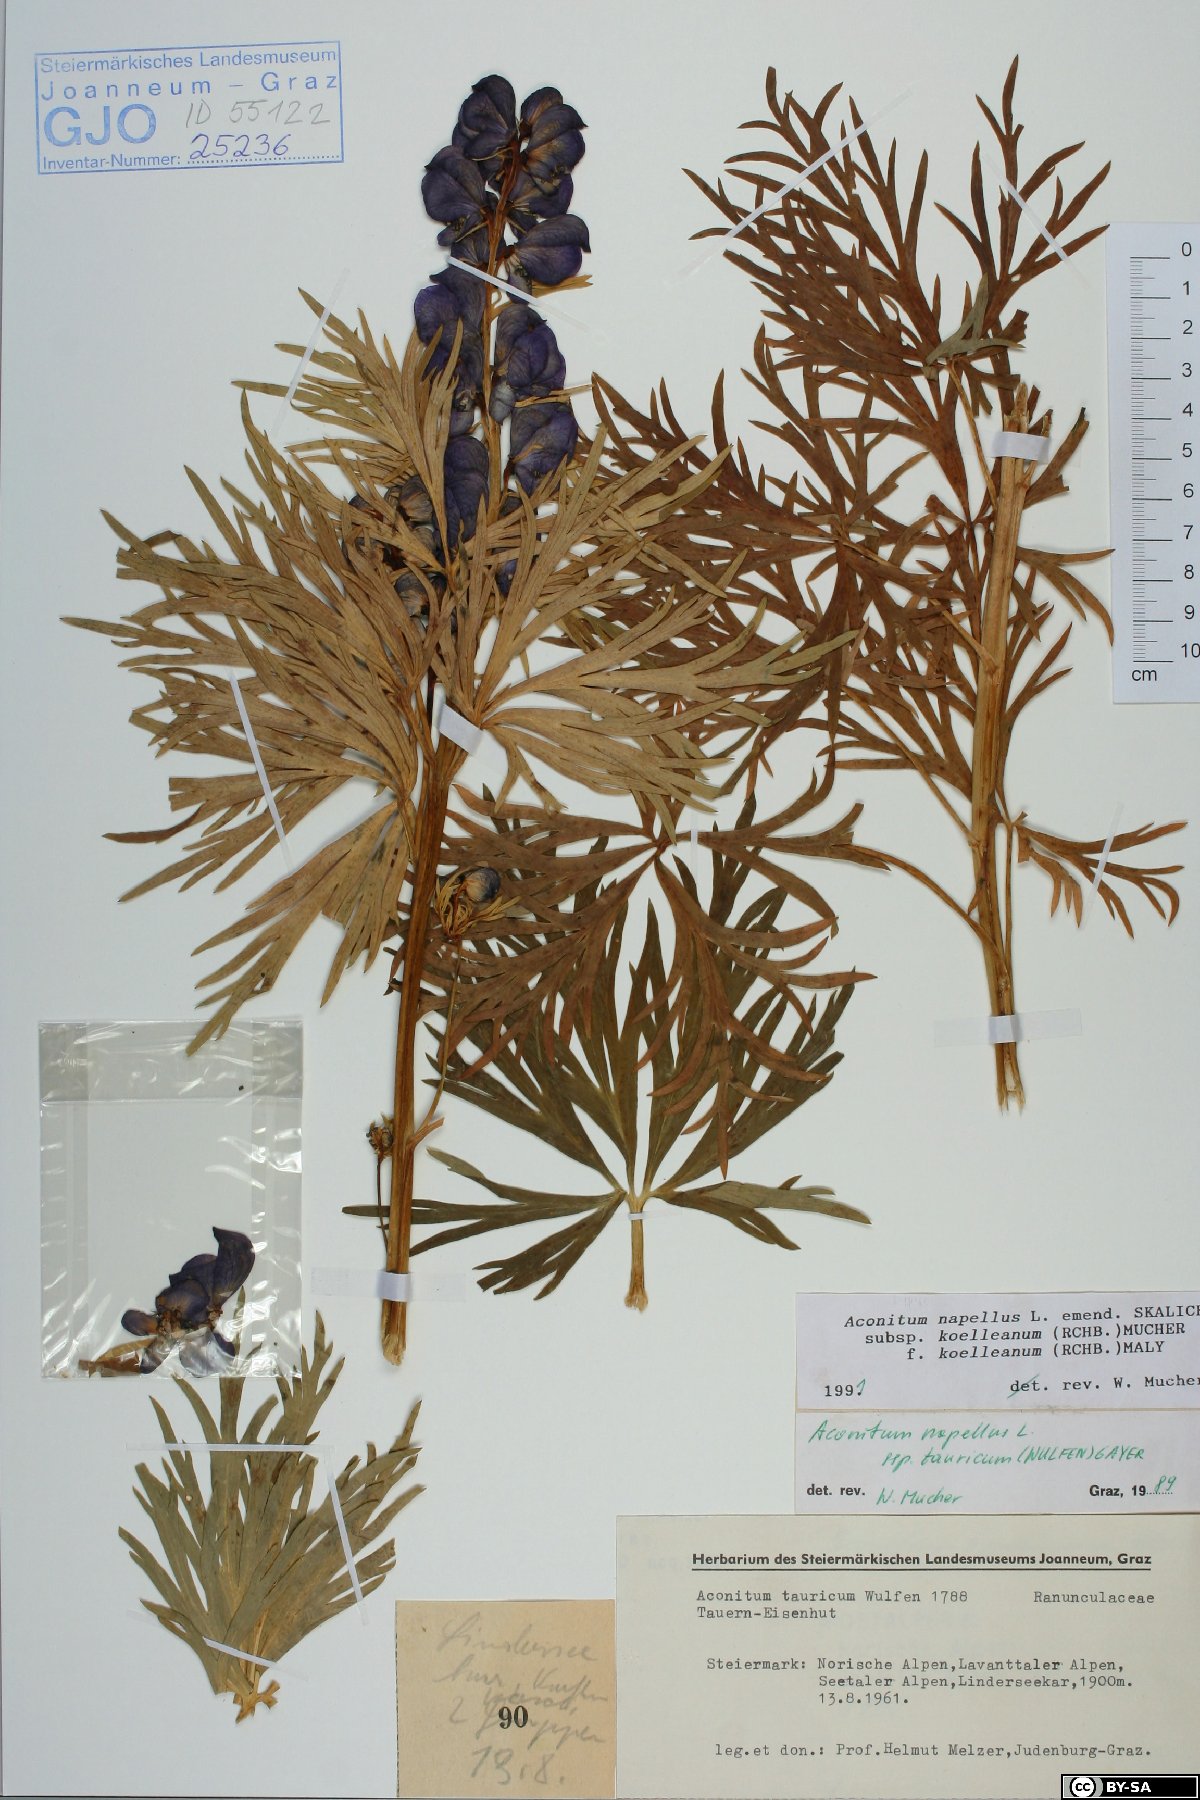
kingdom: Plantae
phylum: Tracheophyta
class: Magnoliopsida
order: Ranunculales
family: Ranunculaceae
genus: Aconitum
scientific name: Aconitum tauricum
